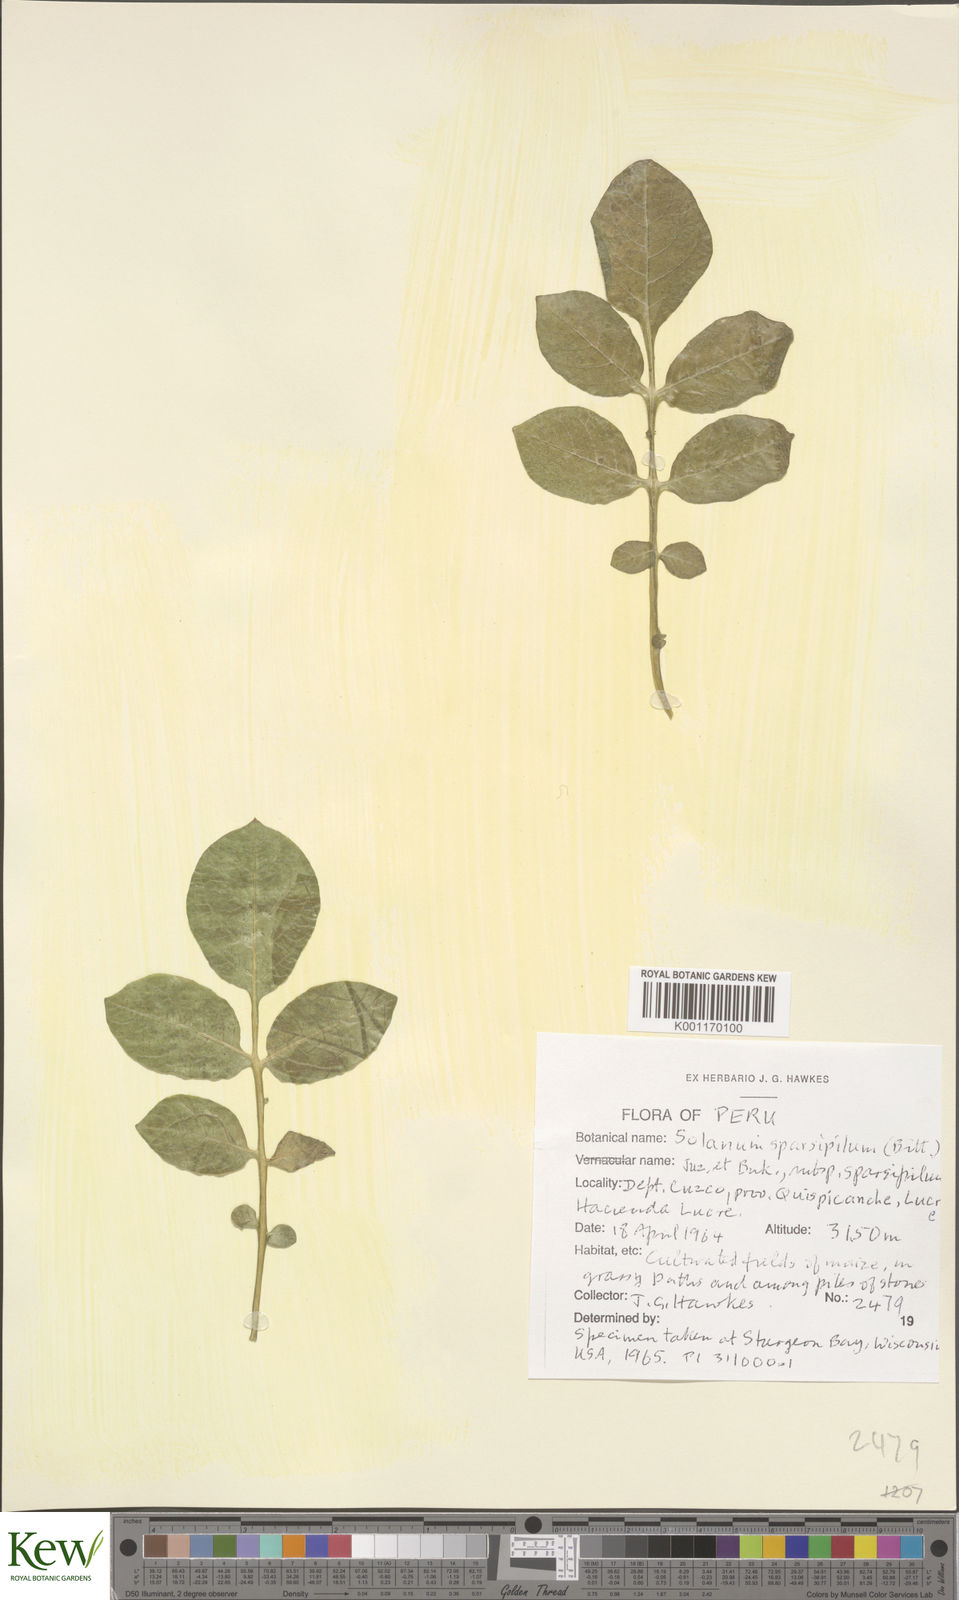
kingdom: Plantae
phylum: Tracheophyta
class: Magnoliopsida
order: Solanales
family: Solanaceae
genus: Solanum
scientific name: Solanum brevicaule
